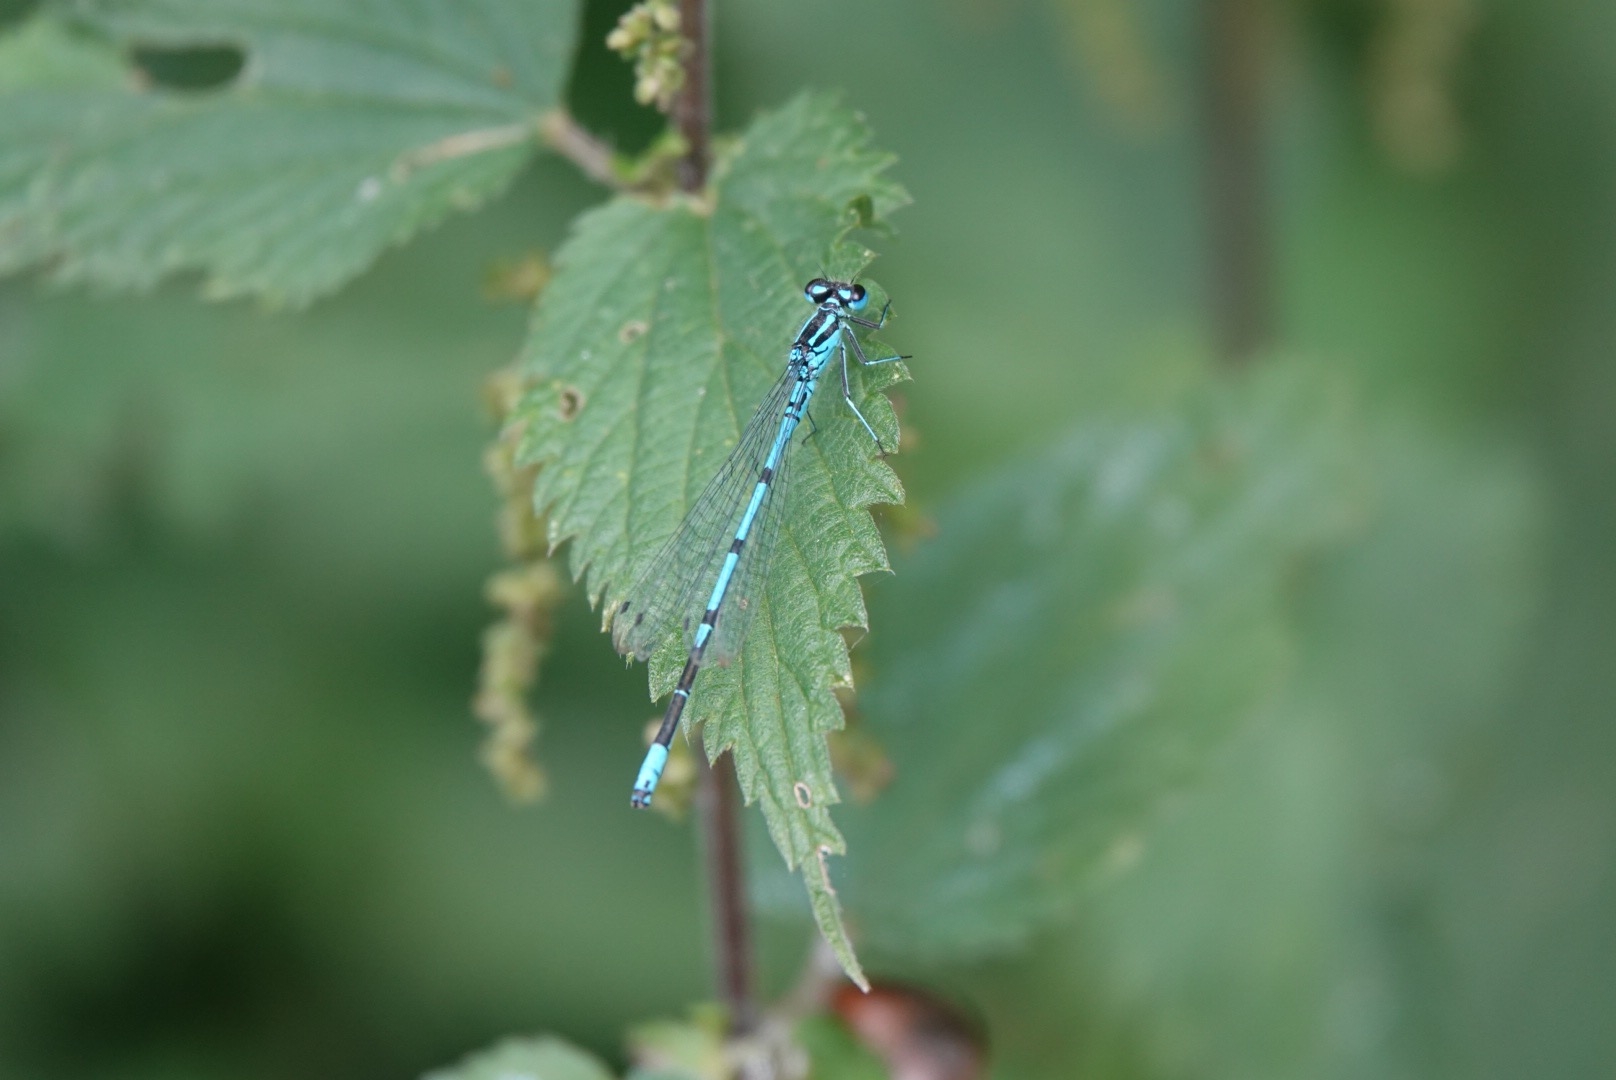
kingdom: Animalia
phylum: Arthropoda
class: Insecta
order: Odonata
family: Coenagrionidae
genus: Coenagrion
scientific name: Coenagrion puella
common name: Hestesko-vandnymfe
